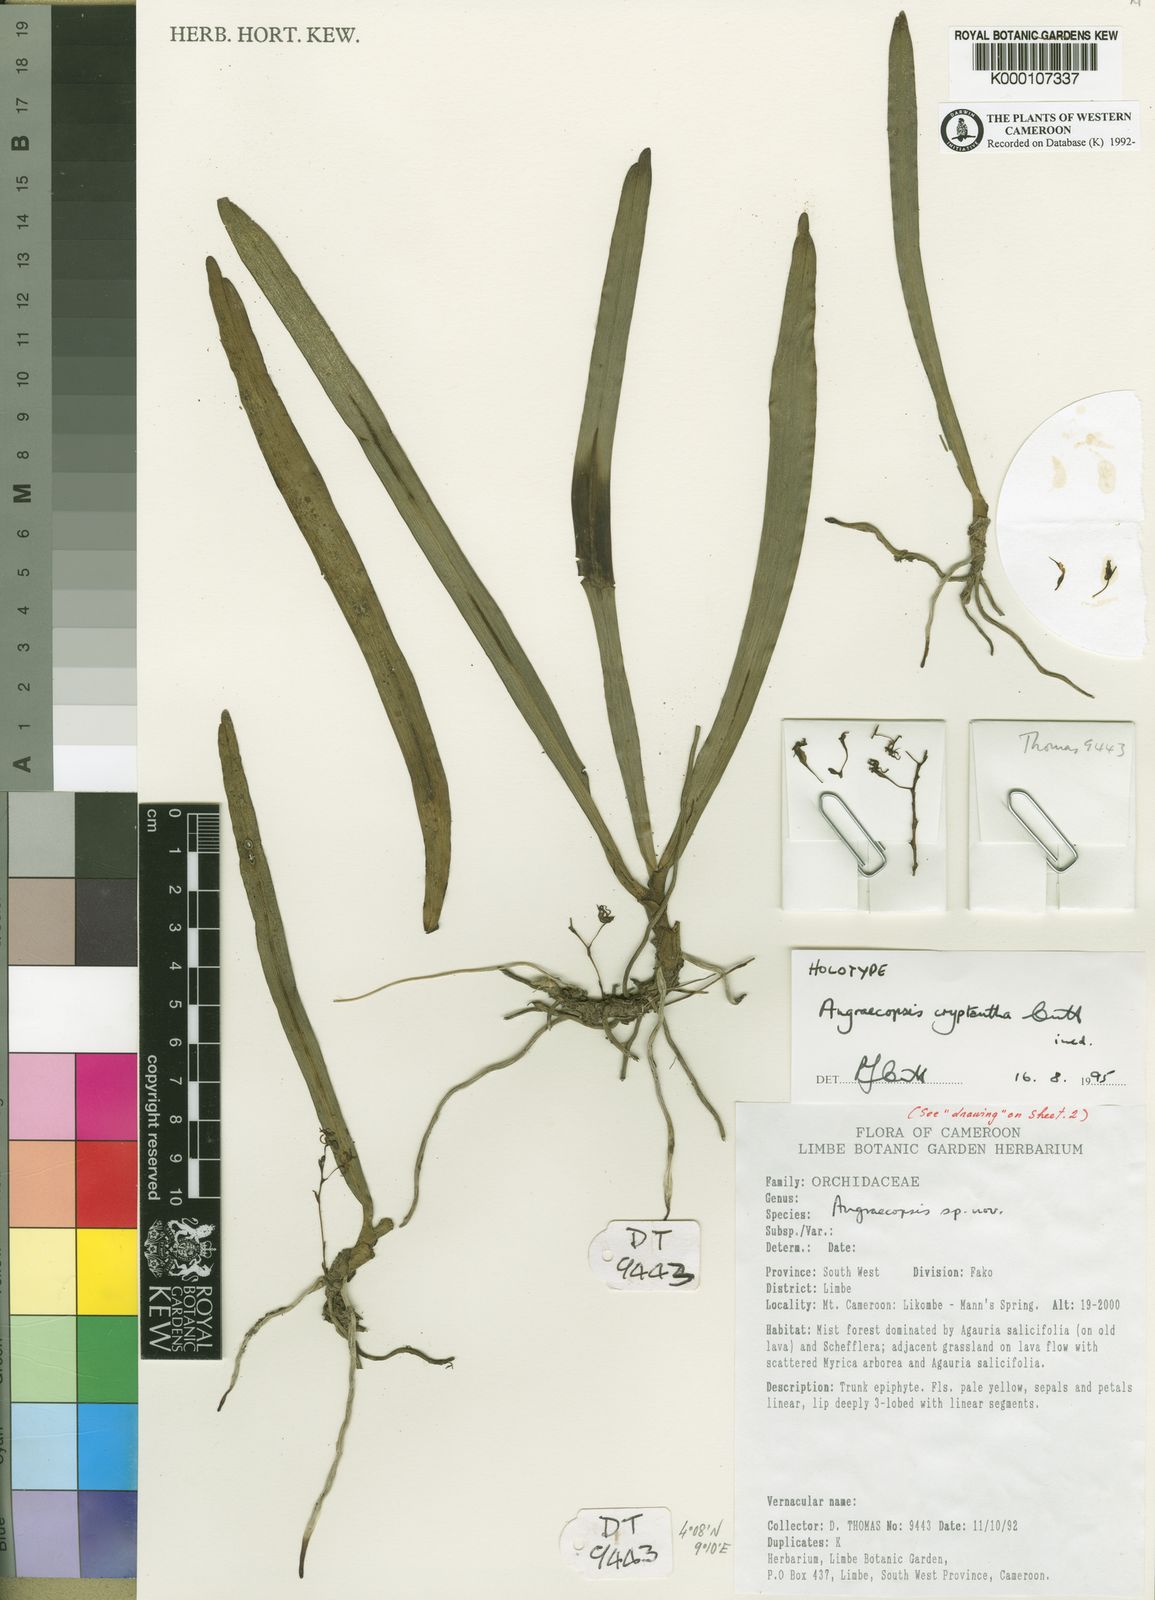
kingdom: Plantae
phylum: Tracheophyta
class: Liliopsida
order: Asparagales
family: Orchidaceae
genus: Angraecopsis
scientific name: Angraecopsis cryptantha
